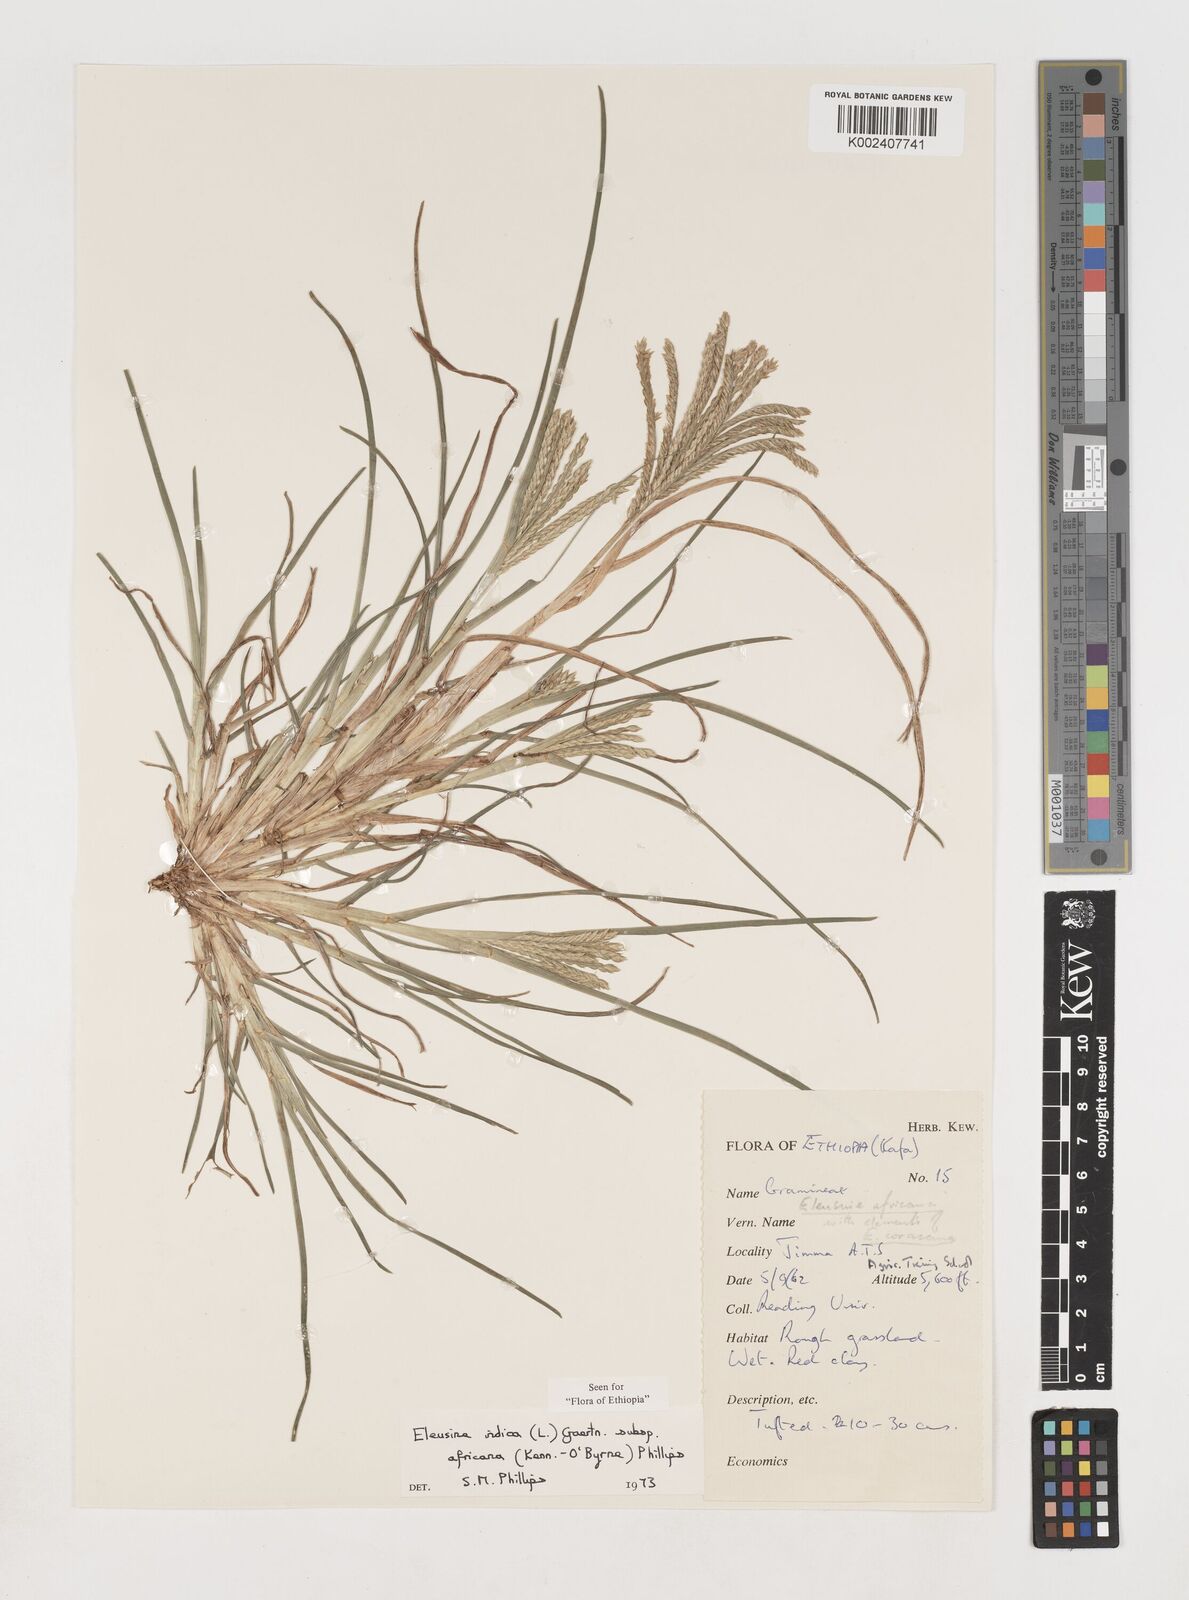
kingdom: Plantae
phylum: Tracheophyta
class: Liliopsida
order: Poales
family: Poaceae
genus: Eleusine
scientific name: Eleusine africana
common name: Wild african finger millet
